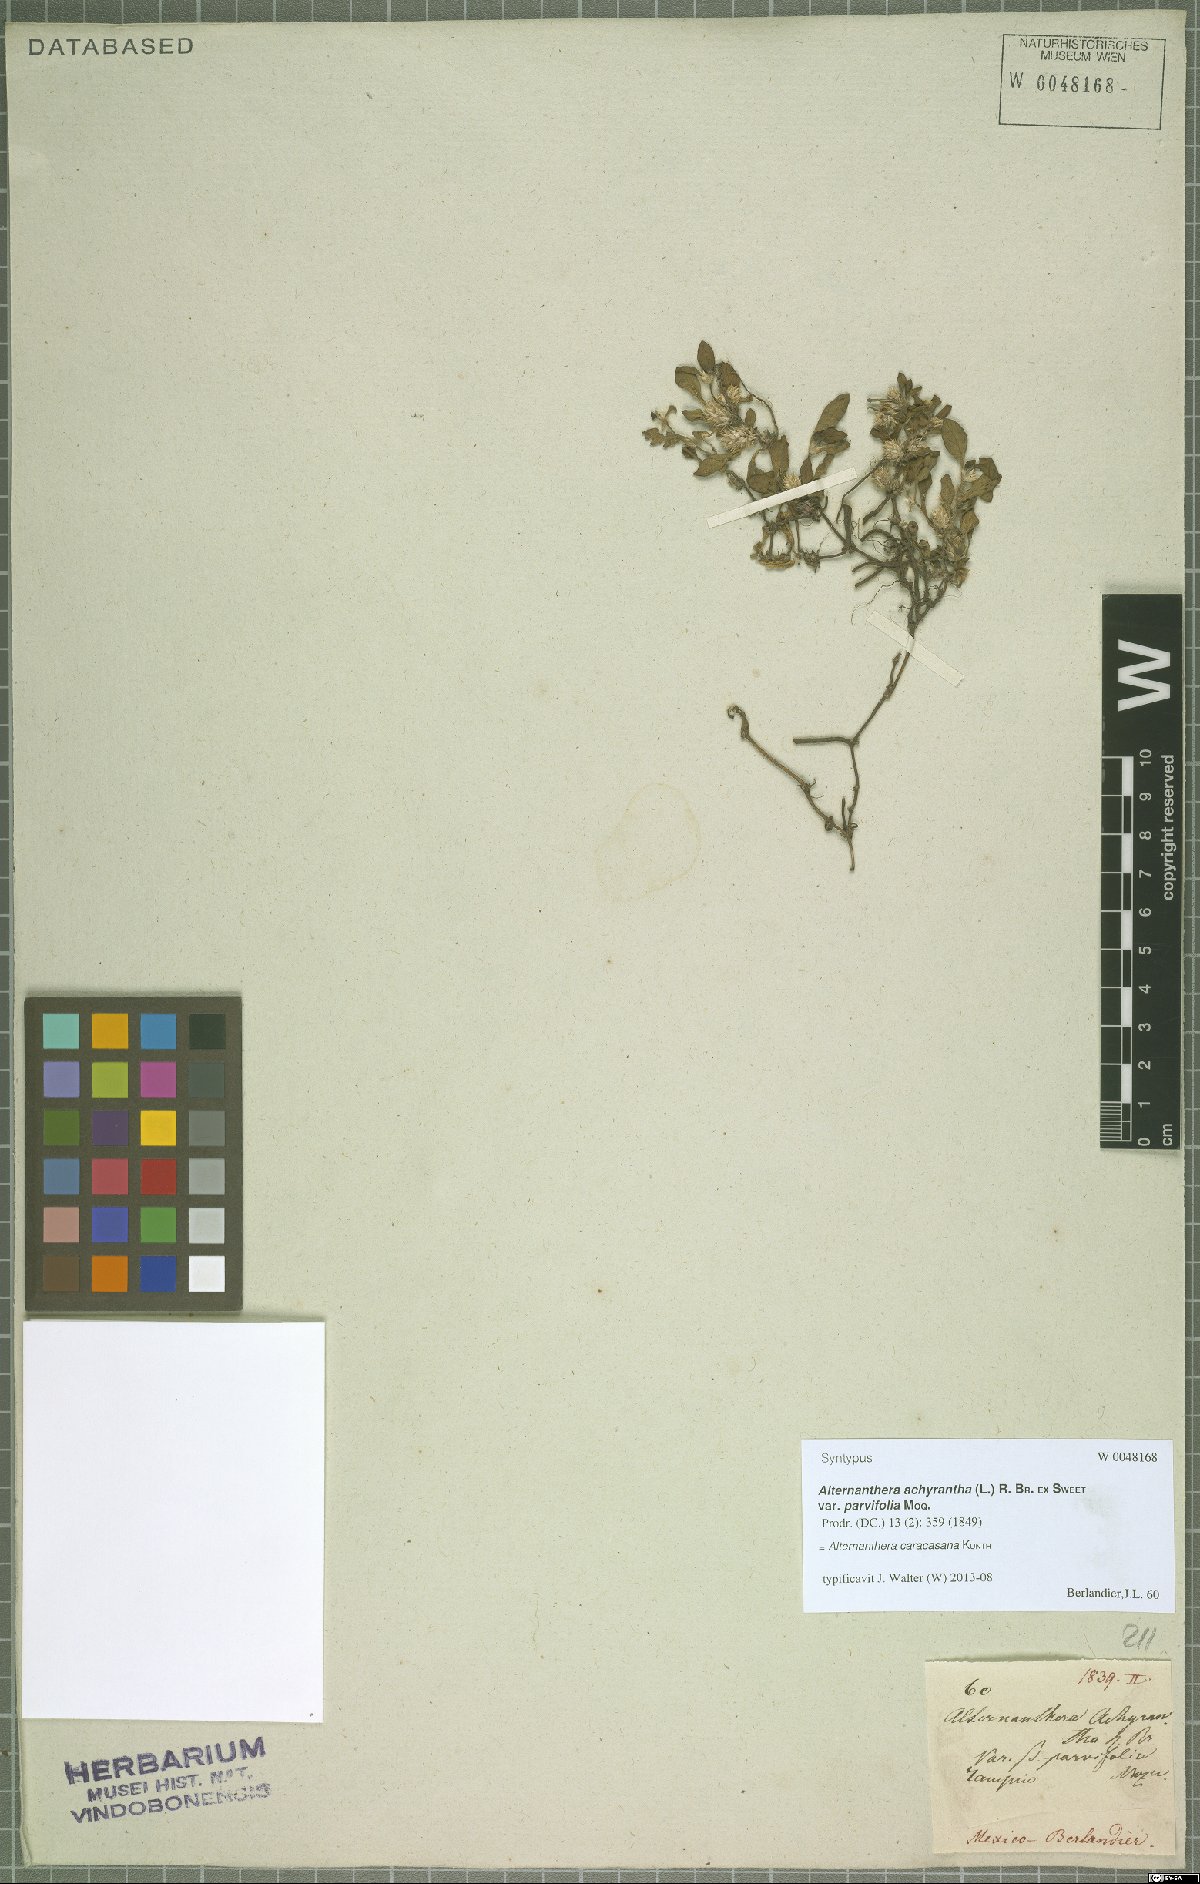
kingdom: Plantae
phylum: Tracheophyta
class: Magnoliopsida
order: Caryophyllales
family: Amaranthaceae
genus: Alternanthera
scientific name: Alternanthera caracasana
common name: Washerwoman
